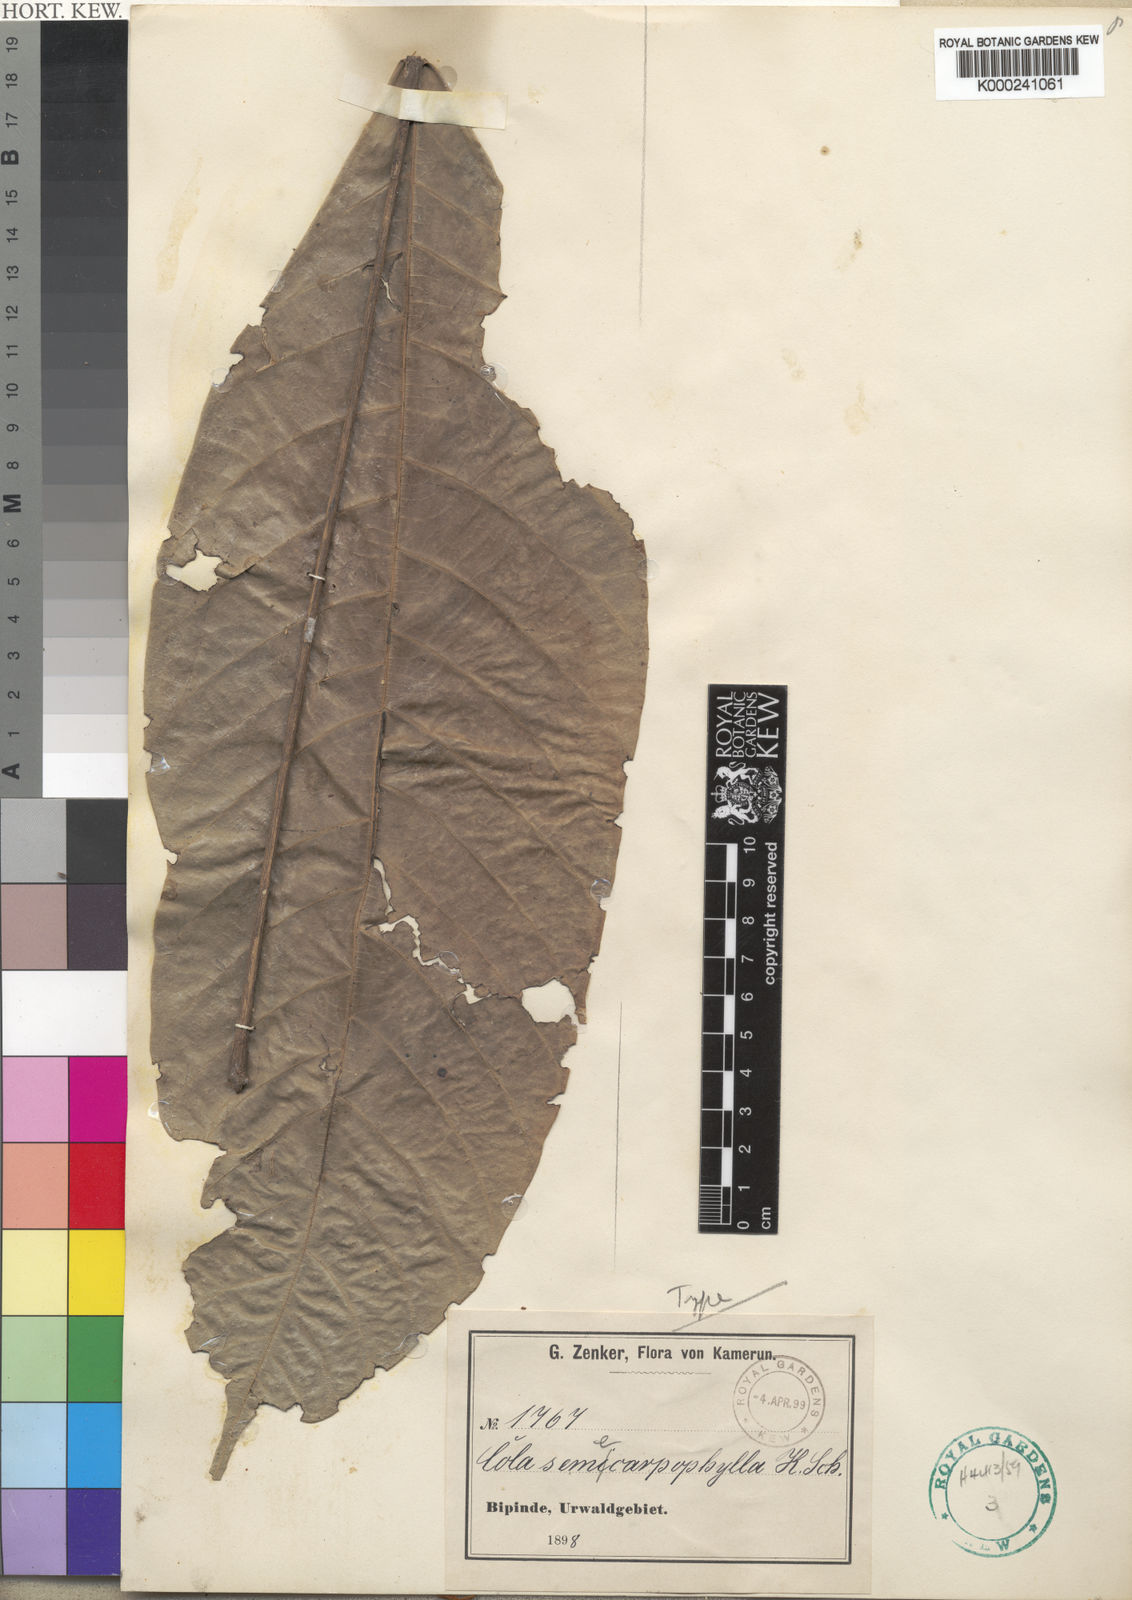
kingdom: Plantae
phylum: Tracheophyta
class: Magnoliopsida
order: Malvales
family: Malvaceae
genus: Cola
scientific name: Cola semecarpophylla
